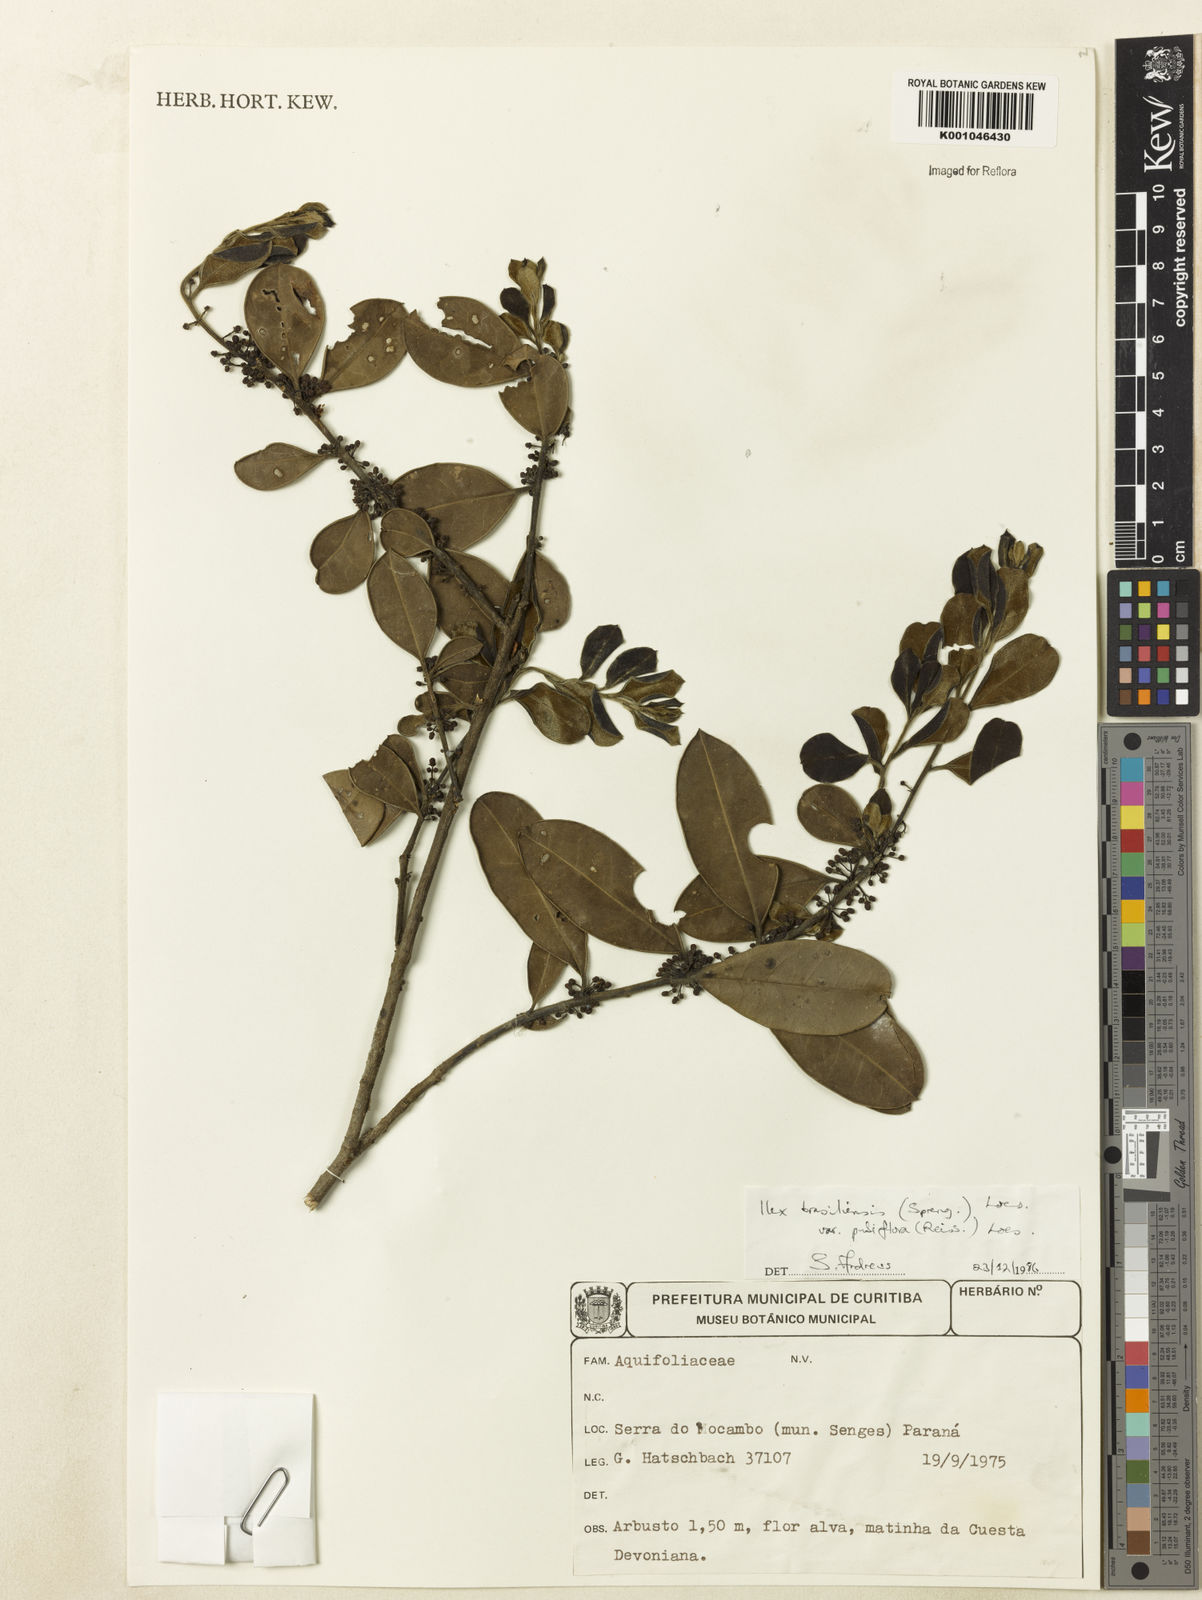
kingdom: Plantae
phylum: Tracheophyta
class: Magnoliopsida
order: Aquifoliales
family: Aquifoliaceae
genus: Ilex
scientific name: Ilex brasiliensis
